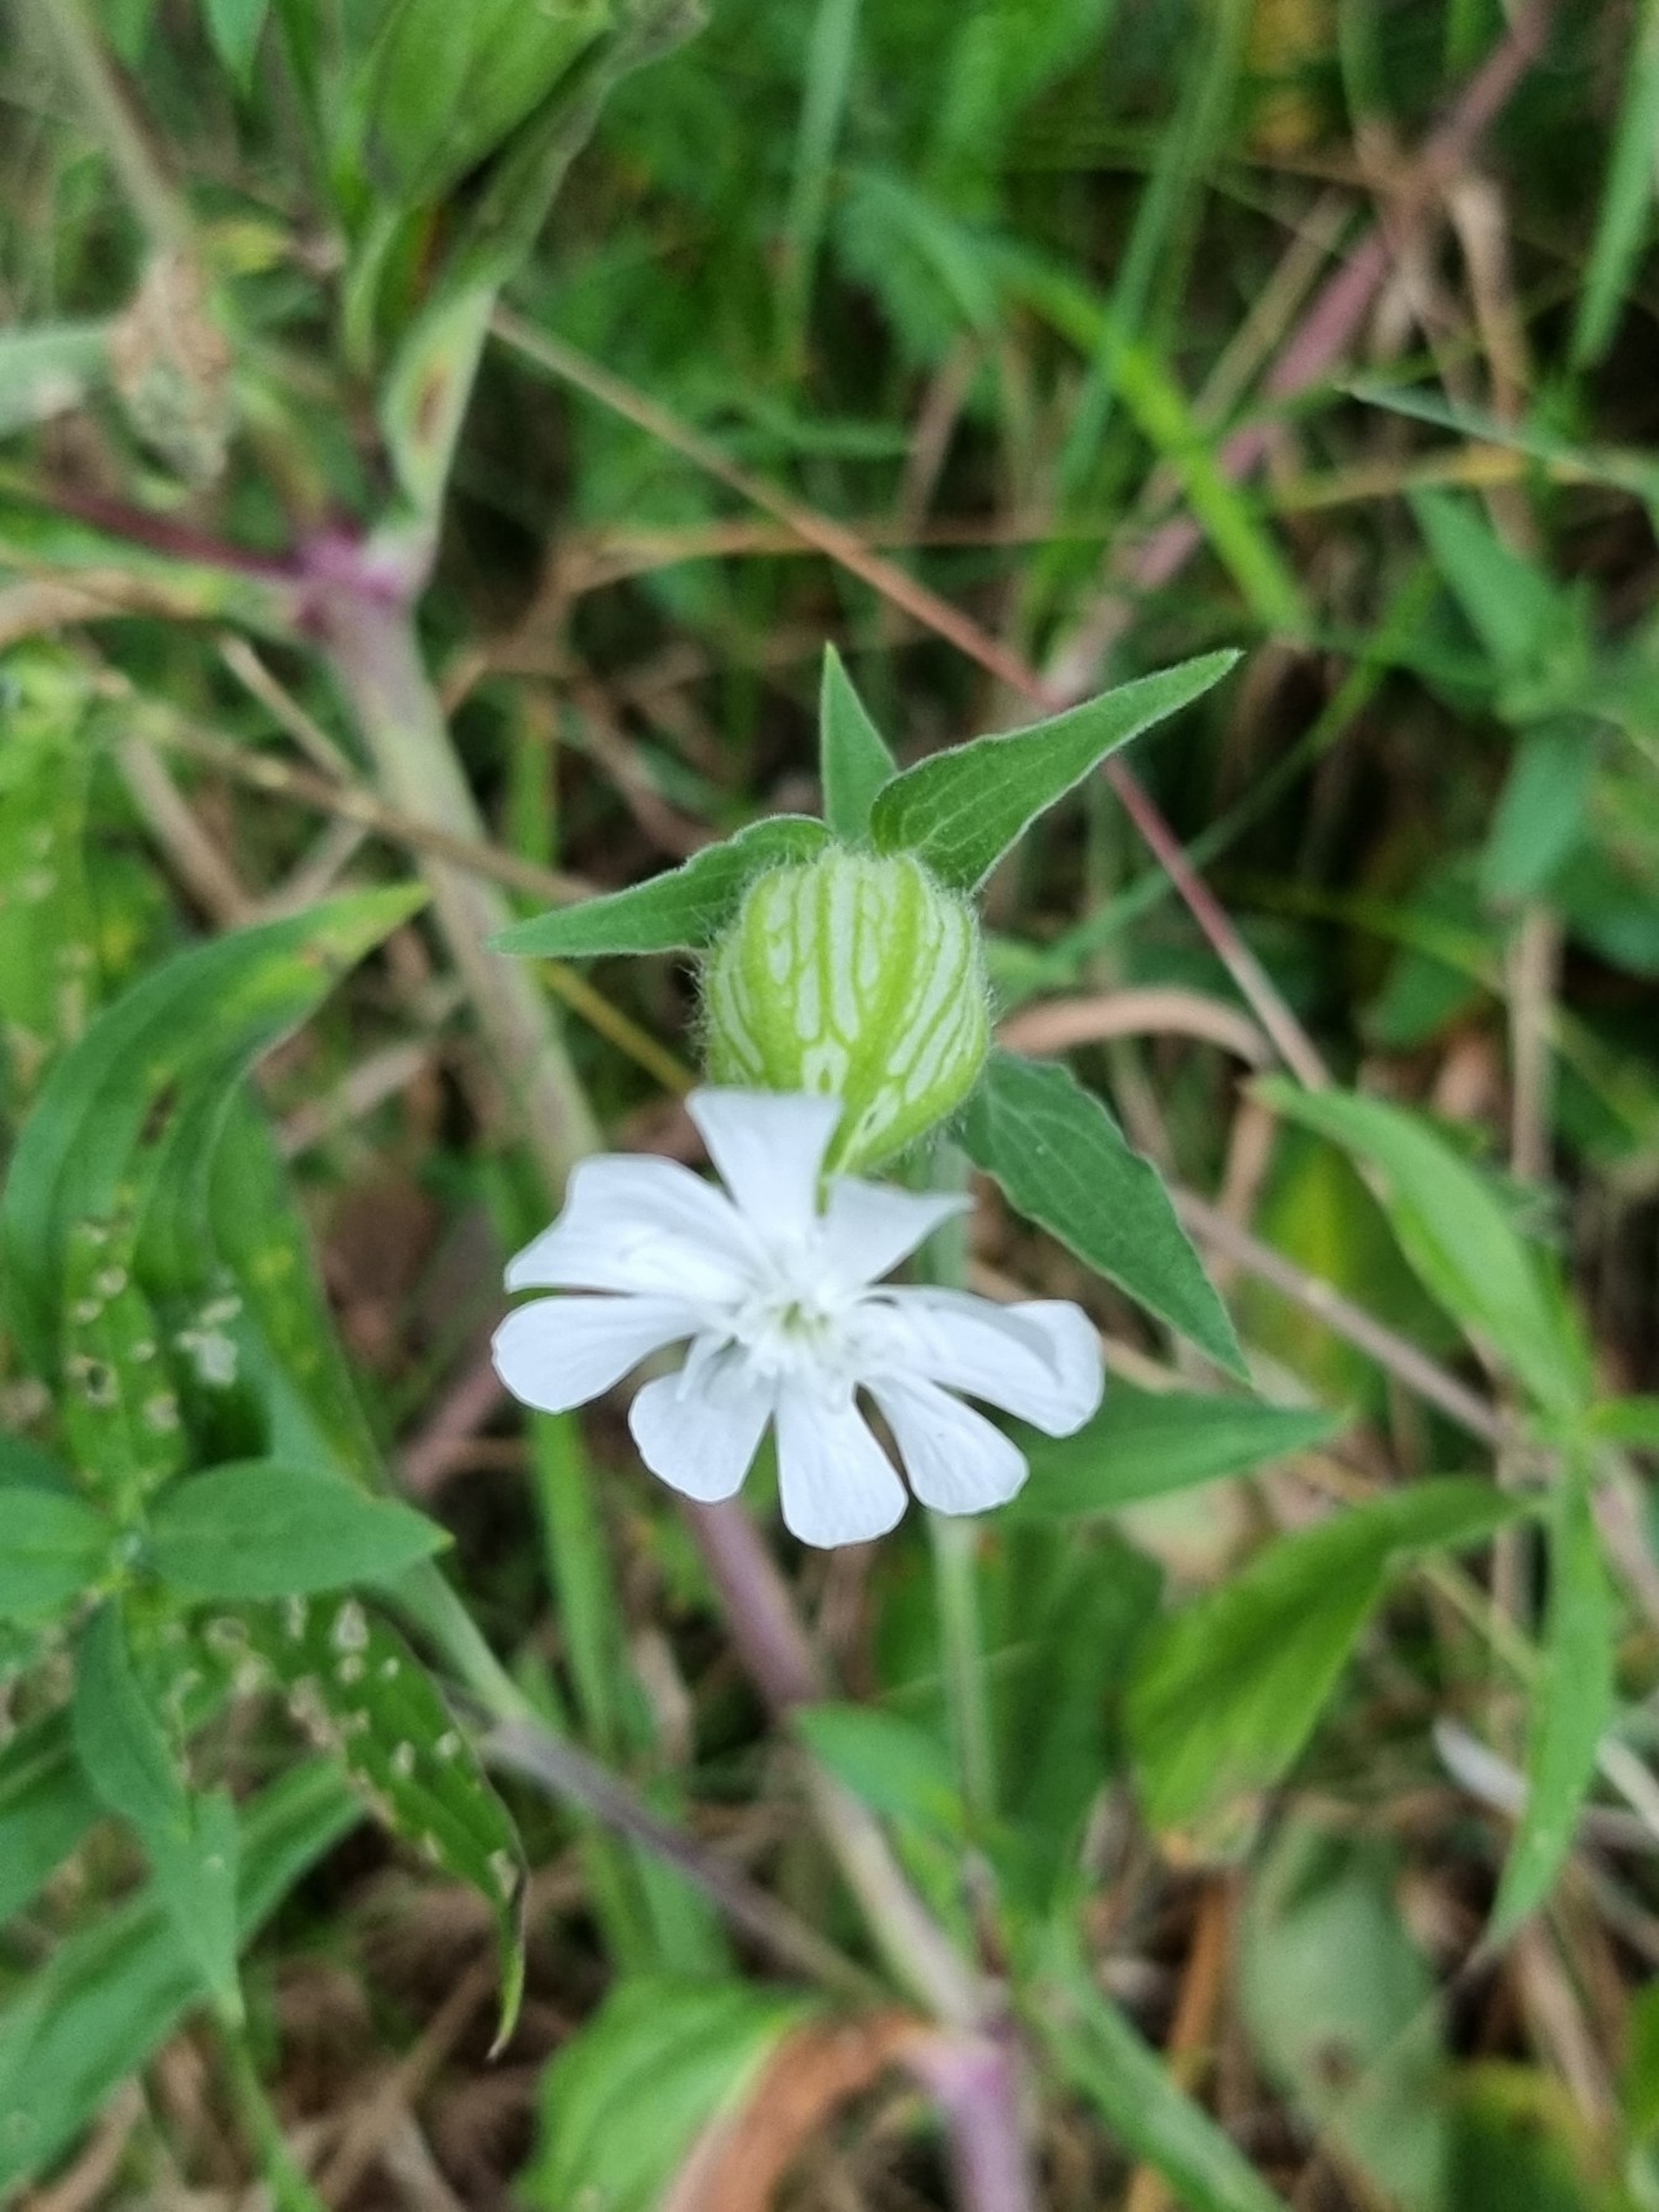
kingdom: Plantae
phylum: Tracheophyta
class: Magnoliopsida
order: Caryophyllales
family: Caryophyllaceae
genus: Silene
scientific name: Silene latifolia
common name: Aftenpragtstjerne
